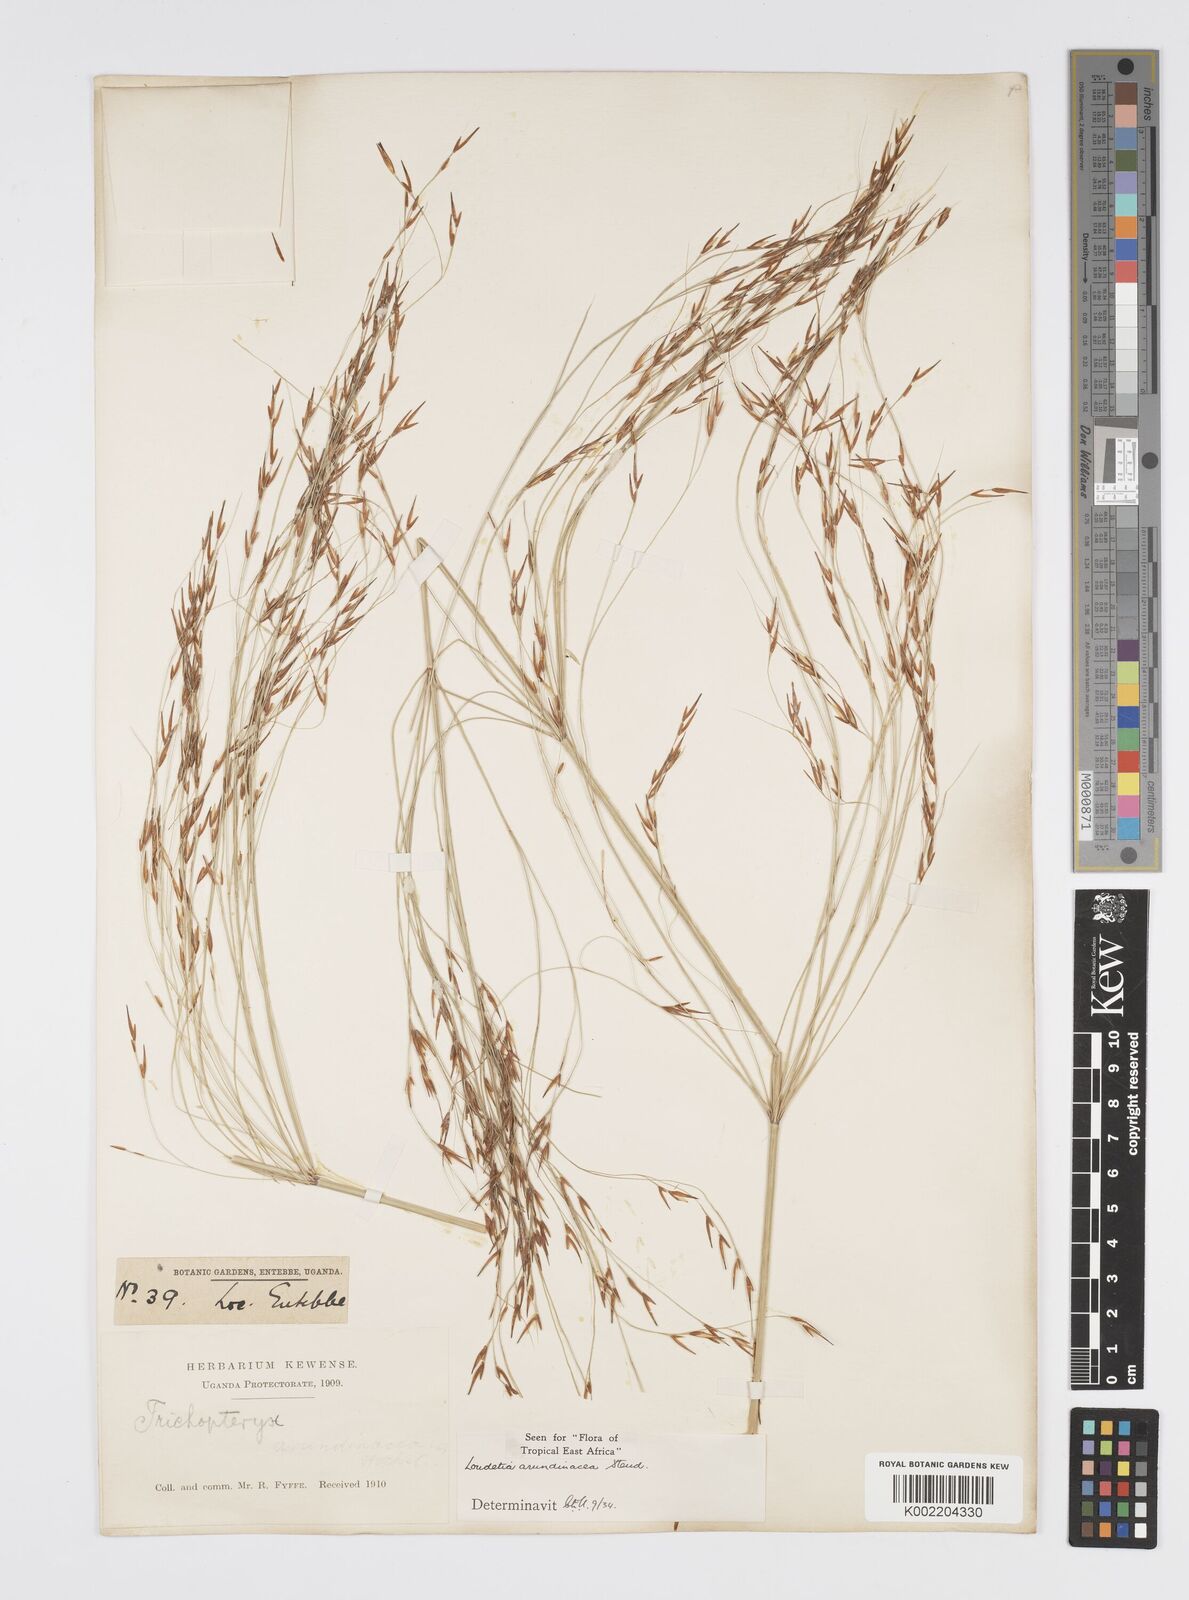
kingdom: Plantae
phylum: Tracheophyta
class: Liliopsida
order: Poales
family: Poaceae
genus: Loudetia
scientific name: Loudetia arundinacea
